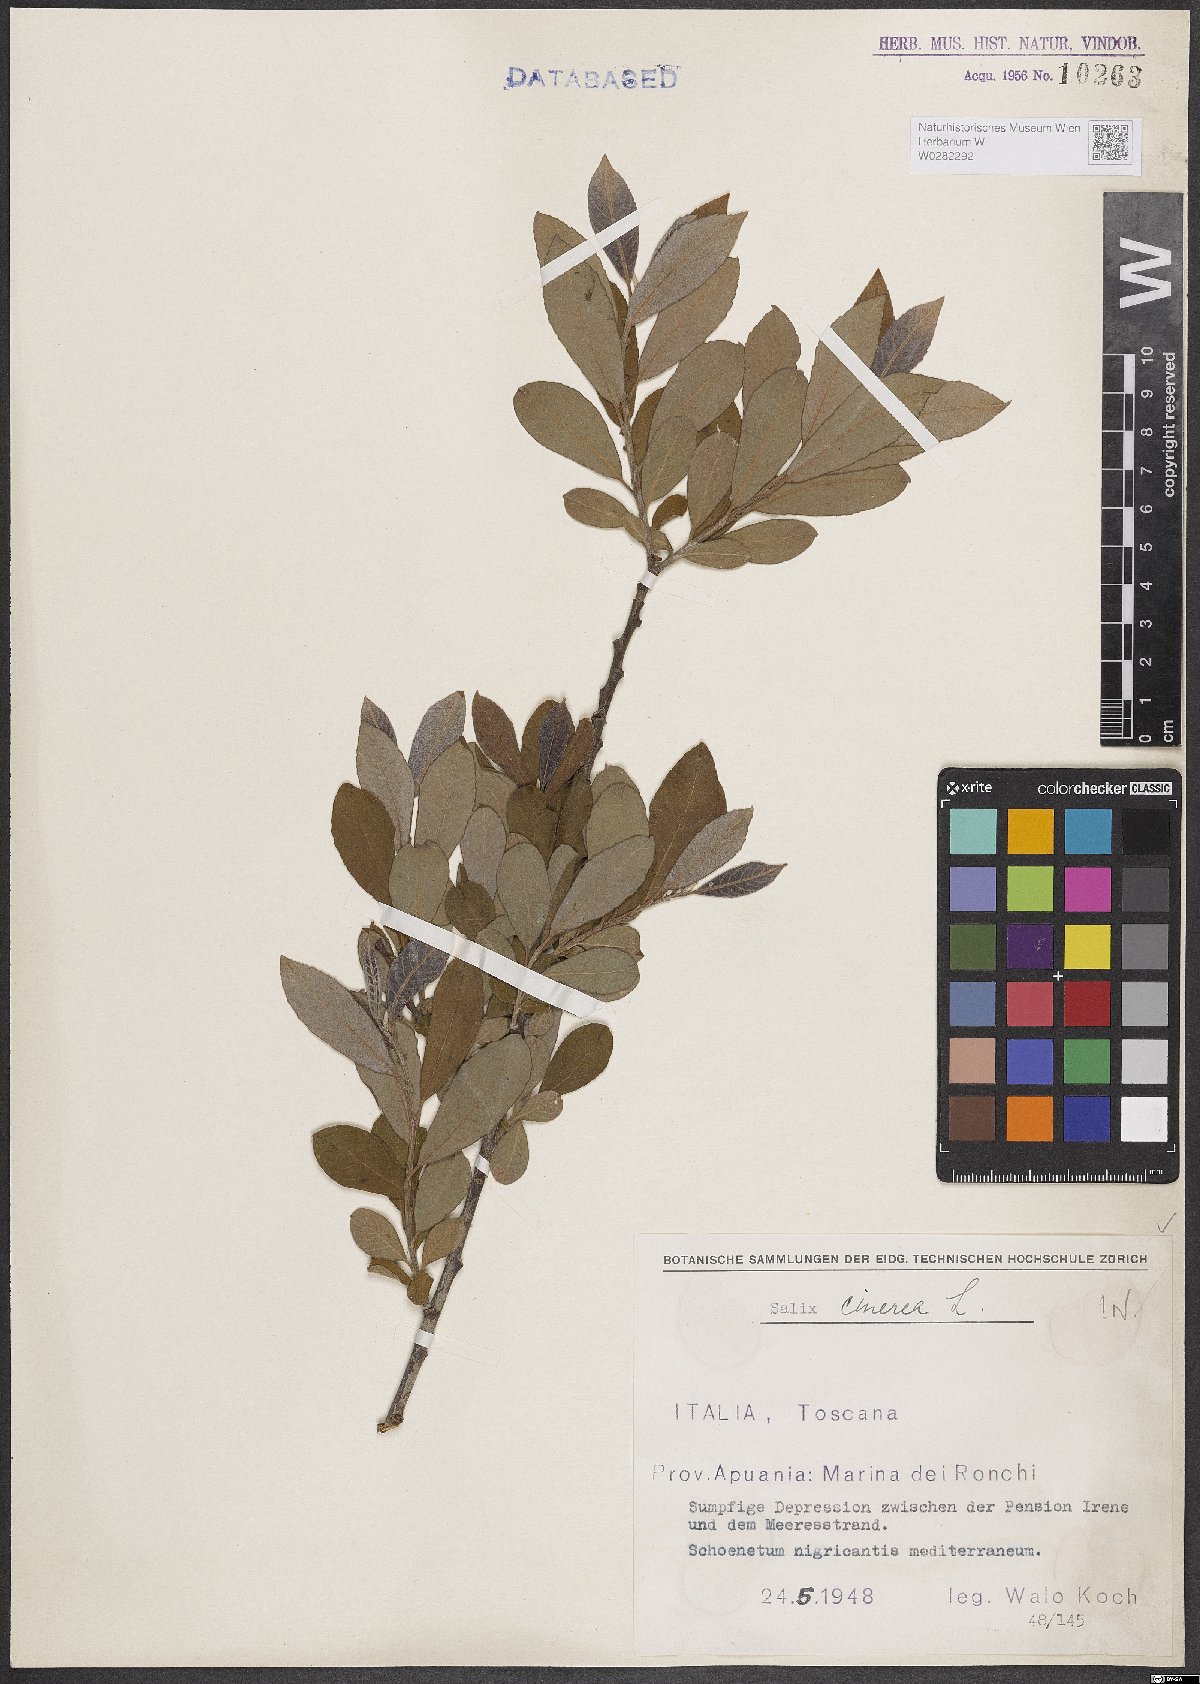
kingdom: Plantae
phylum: Tracheophyta
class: Magnoliopsida
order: Malpighiales
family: Salicaceae
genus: Salix
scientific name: Salix cinerea
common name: Common sallow
